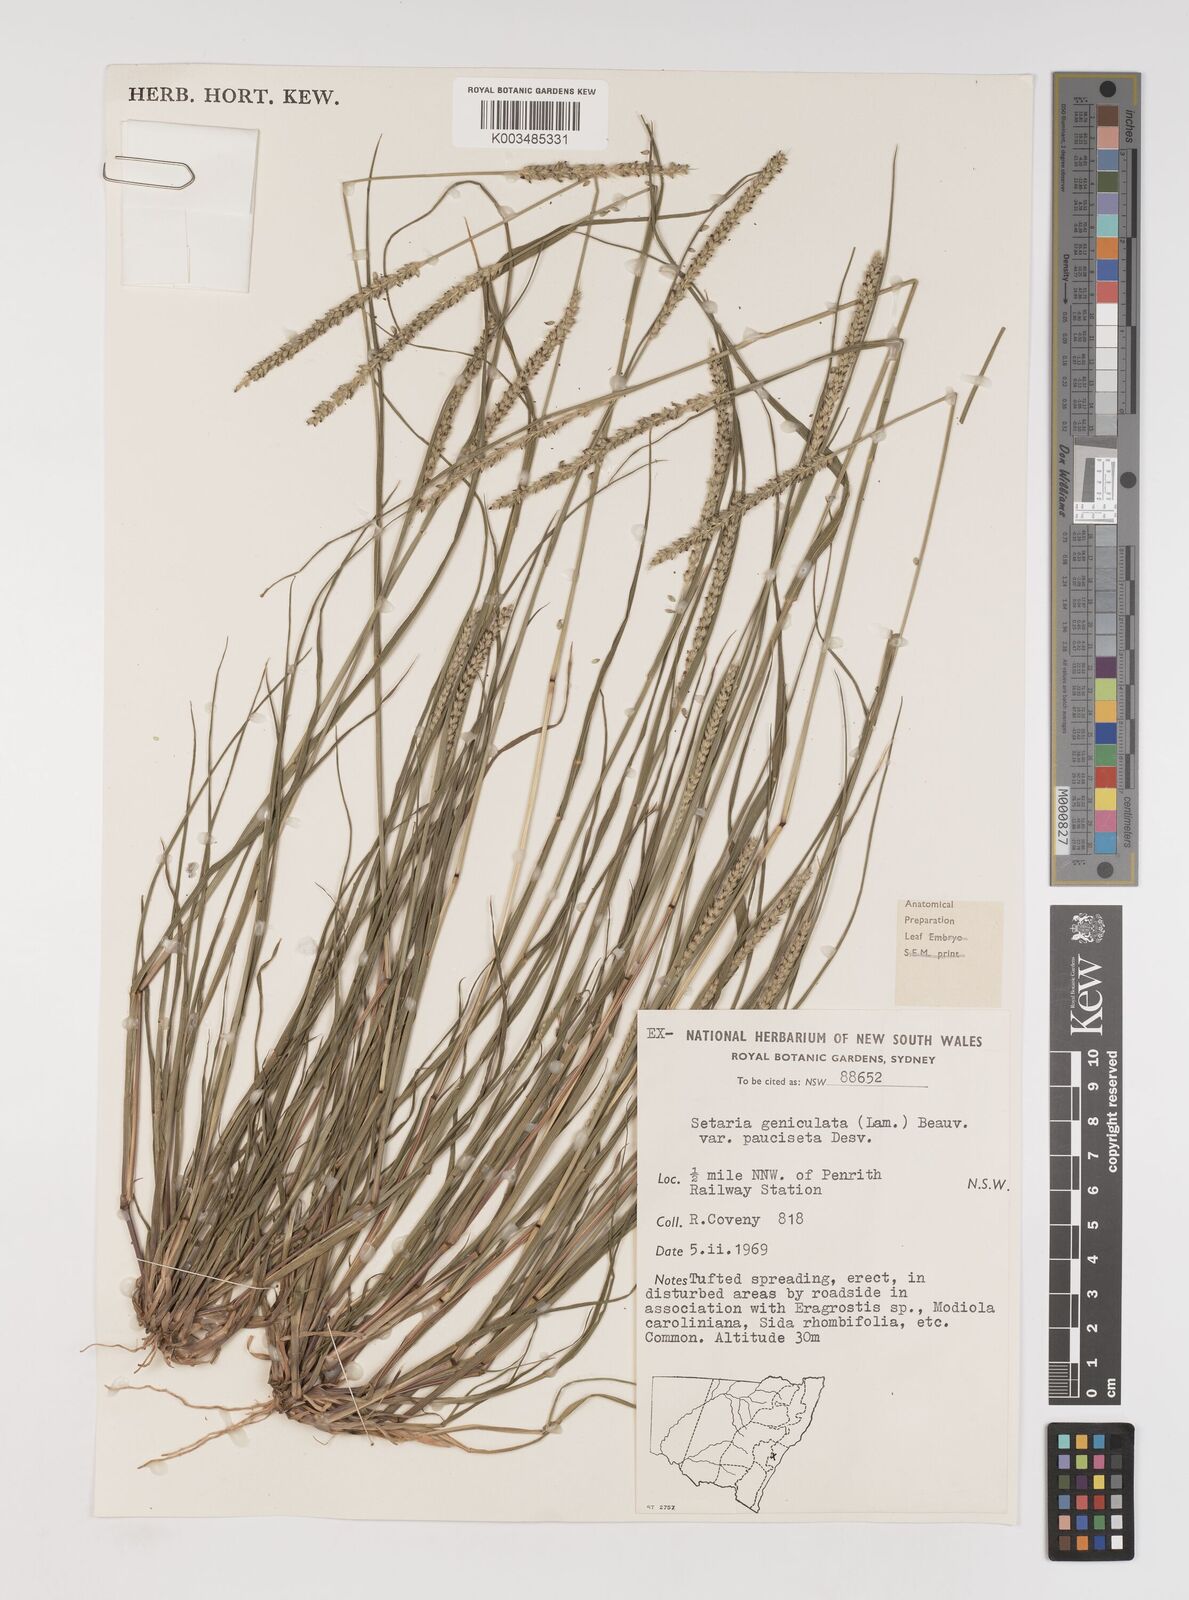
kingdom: Plantae
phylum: Tracheophyta
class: Liliopsida
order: Poales
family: Poaceae
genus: Setaria
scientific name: Setaria parviflora
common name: Knotroot bristle-grass
